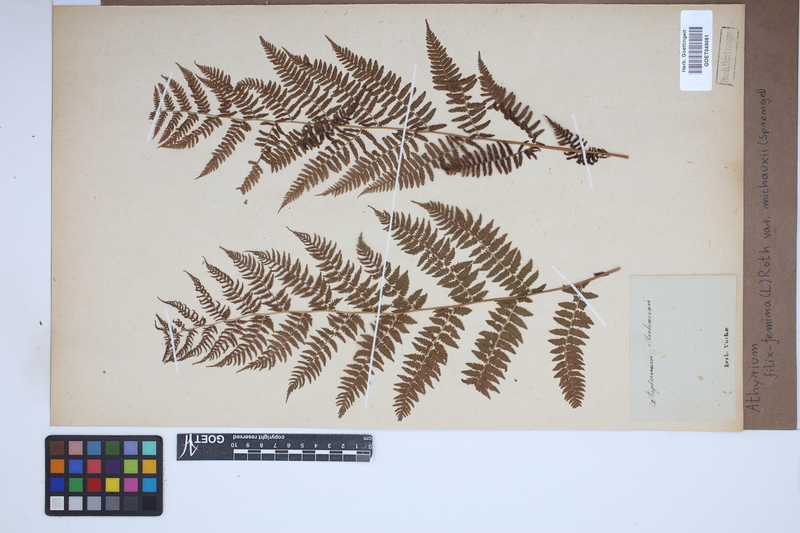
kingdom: Plantae
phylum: Tracheophyta
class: Polypodiopsida
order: Polypodiales
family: Athyriaceae
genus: Athyrium
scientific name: Athyrium angustum
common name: Northern lady fern
